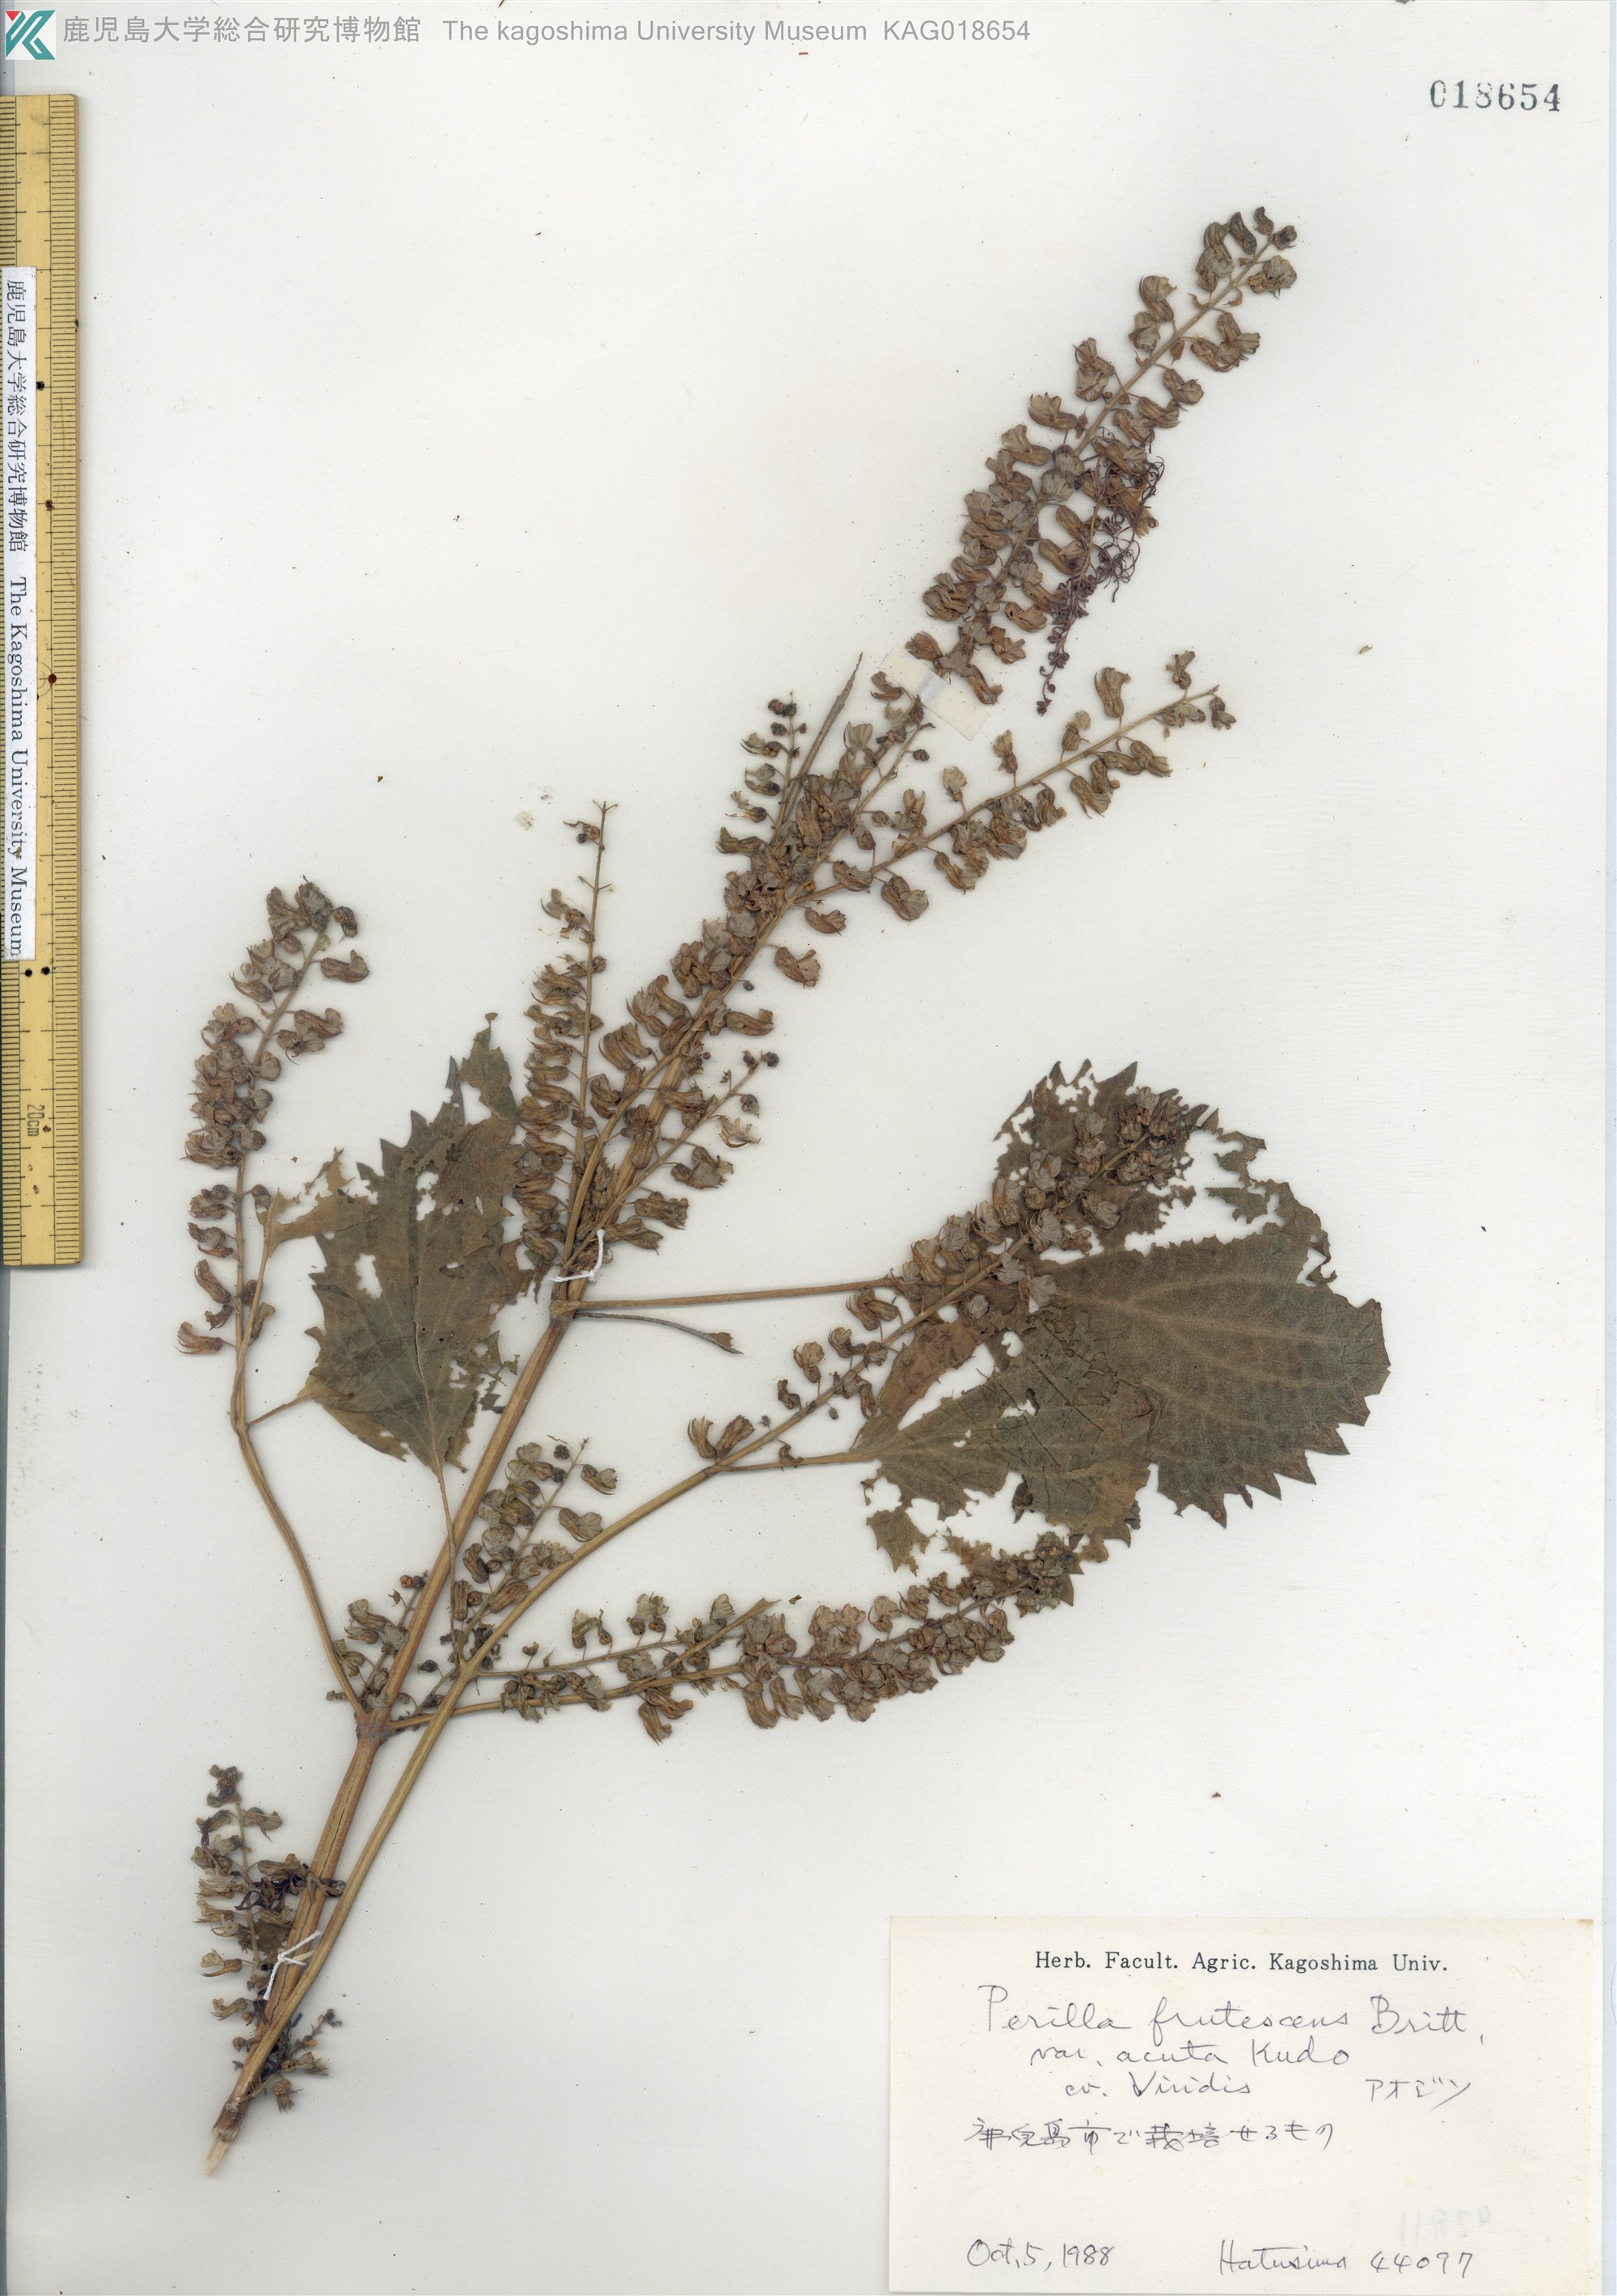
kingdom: Plantae
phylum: Tracheophyta
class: Magnoliopsida
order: Lamiales
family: Lamiaceae
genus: Perilla
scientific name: Perilla frutescens
